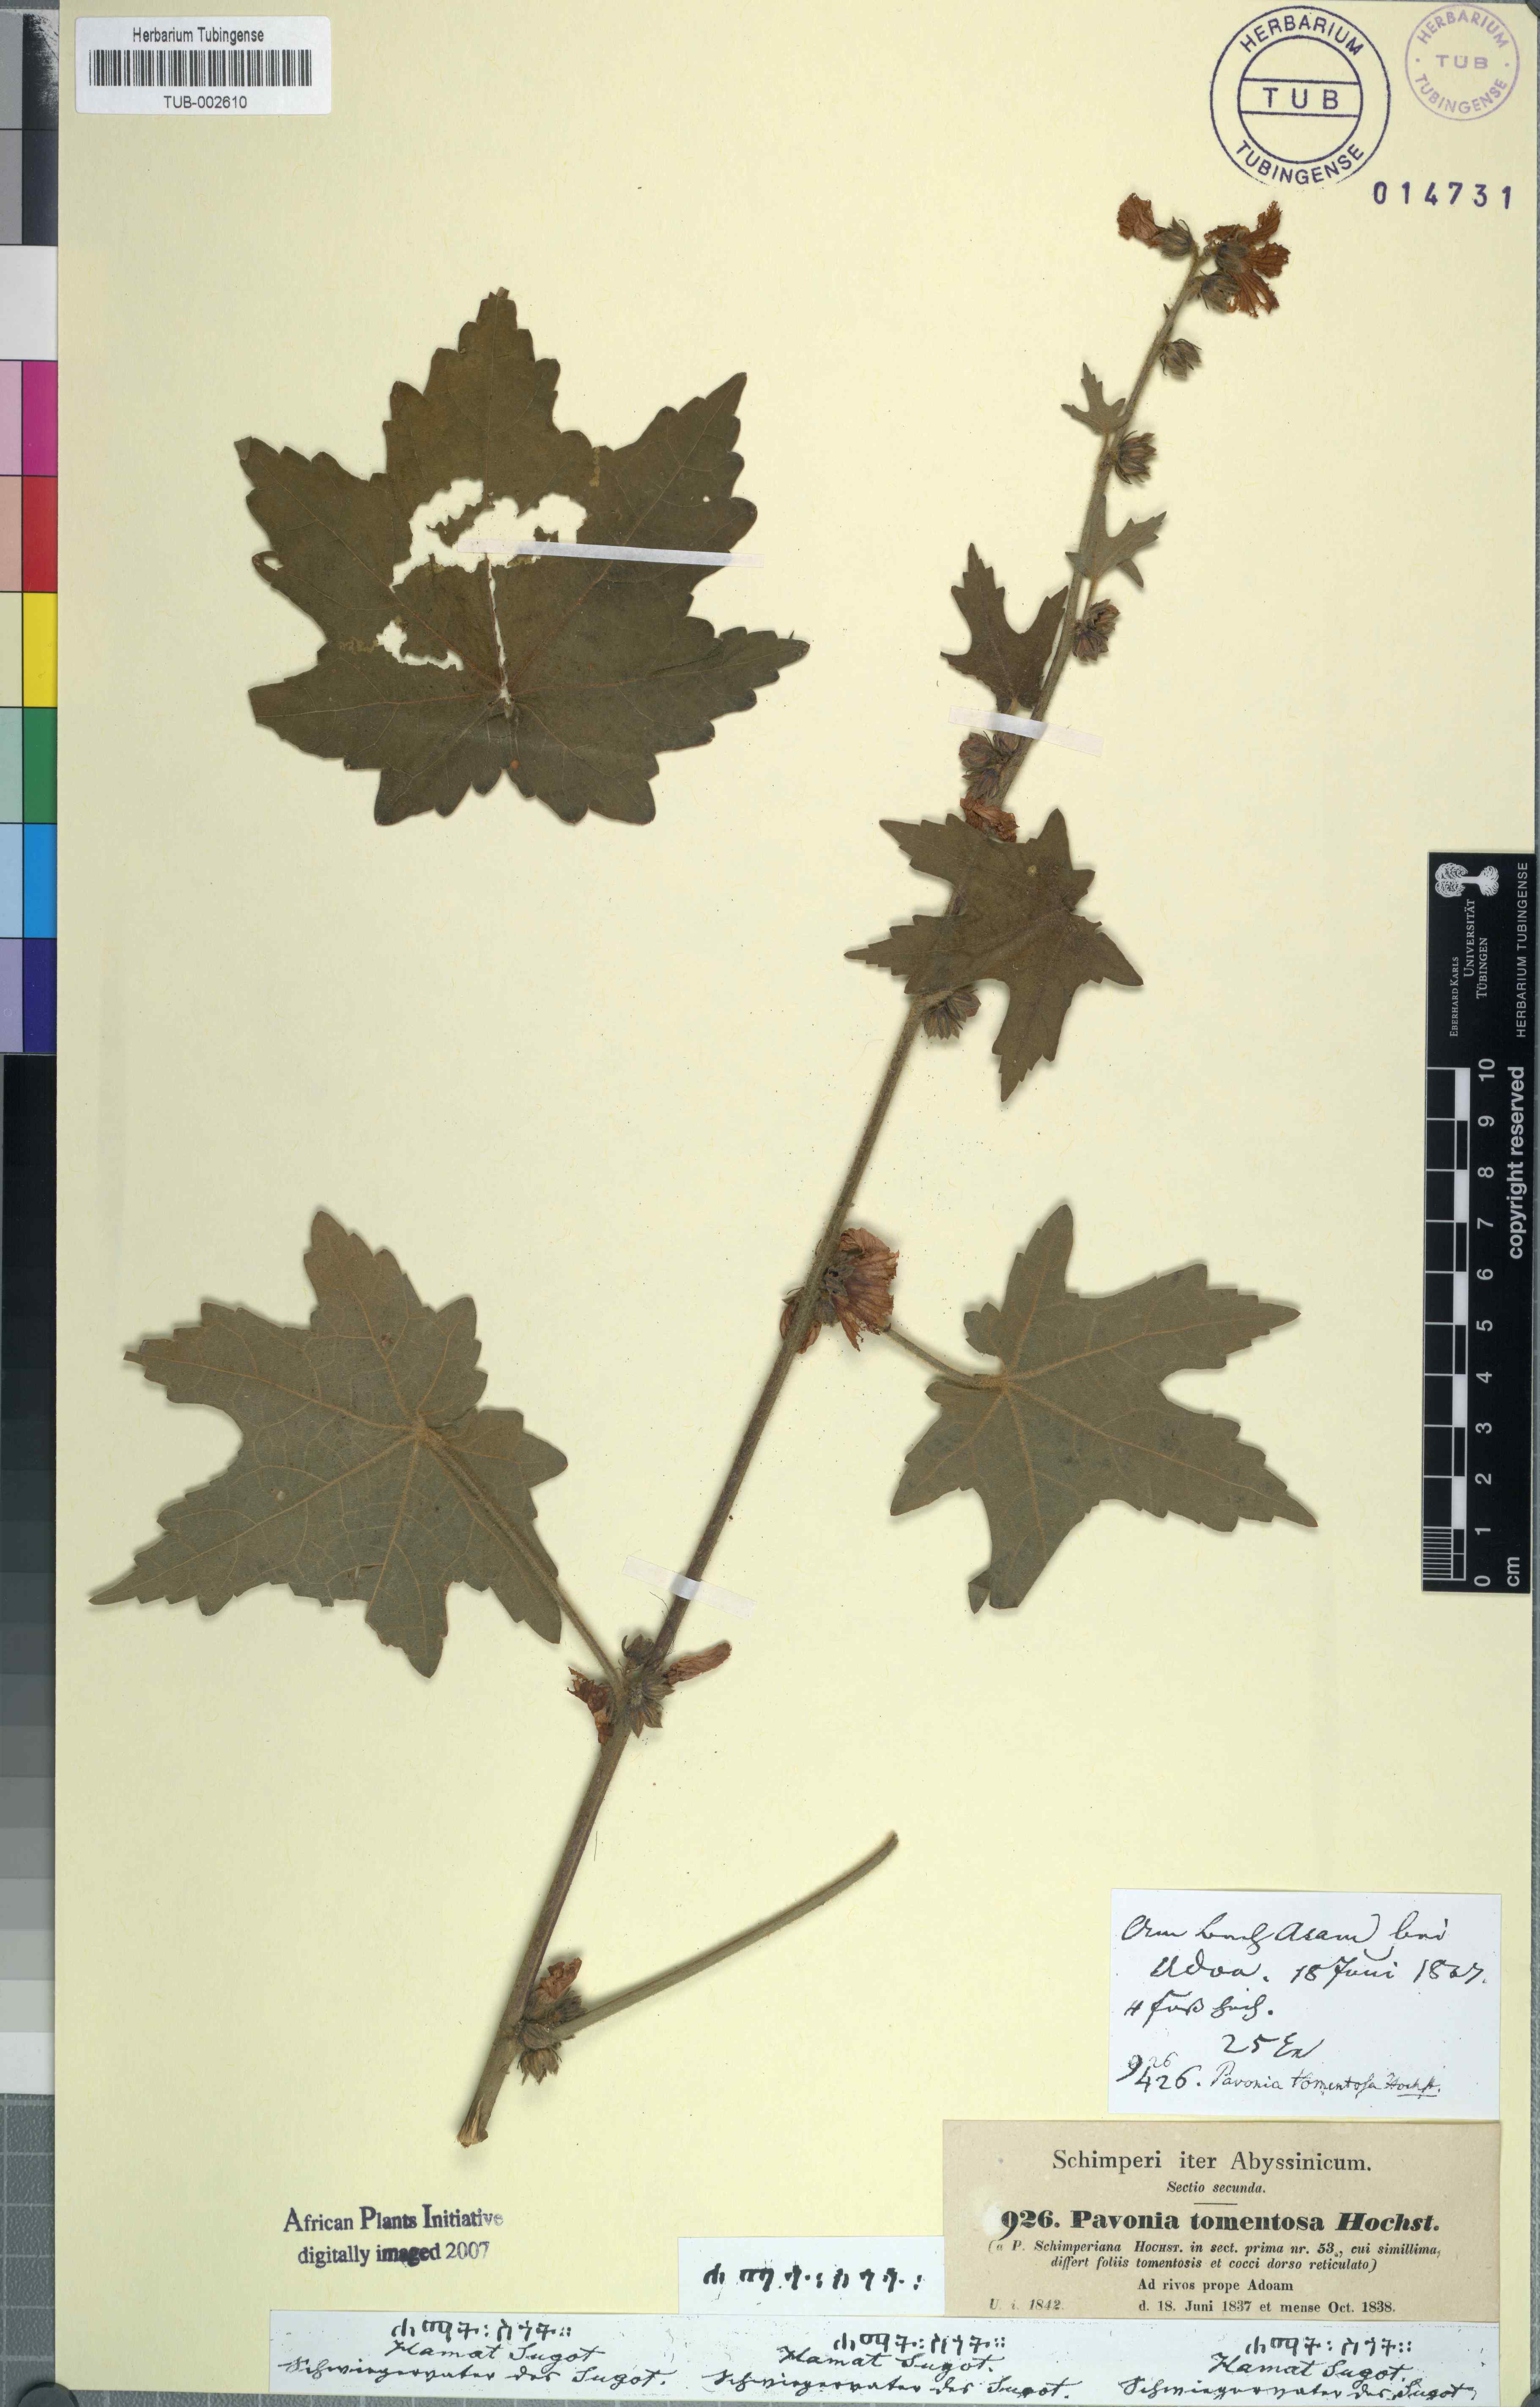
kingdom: Plantae
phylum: Tracheophyta
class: Magnoliopsida
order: Malvales
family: Malvaceae
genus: Pavonia
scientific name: Pavonia schimperiana
